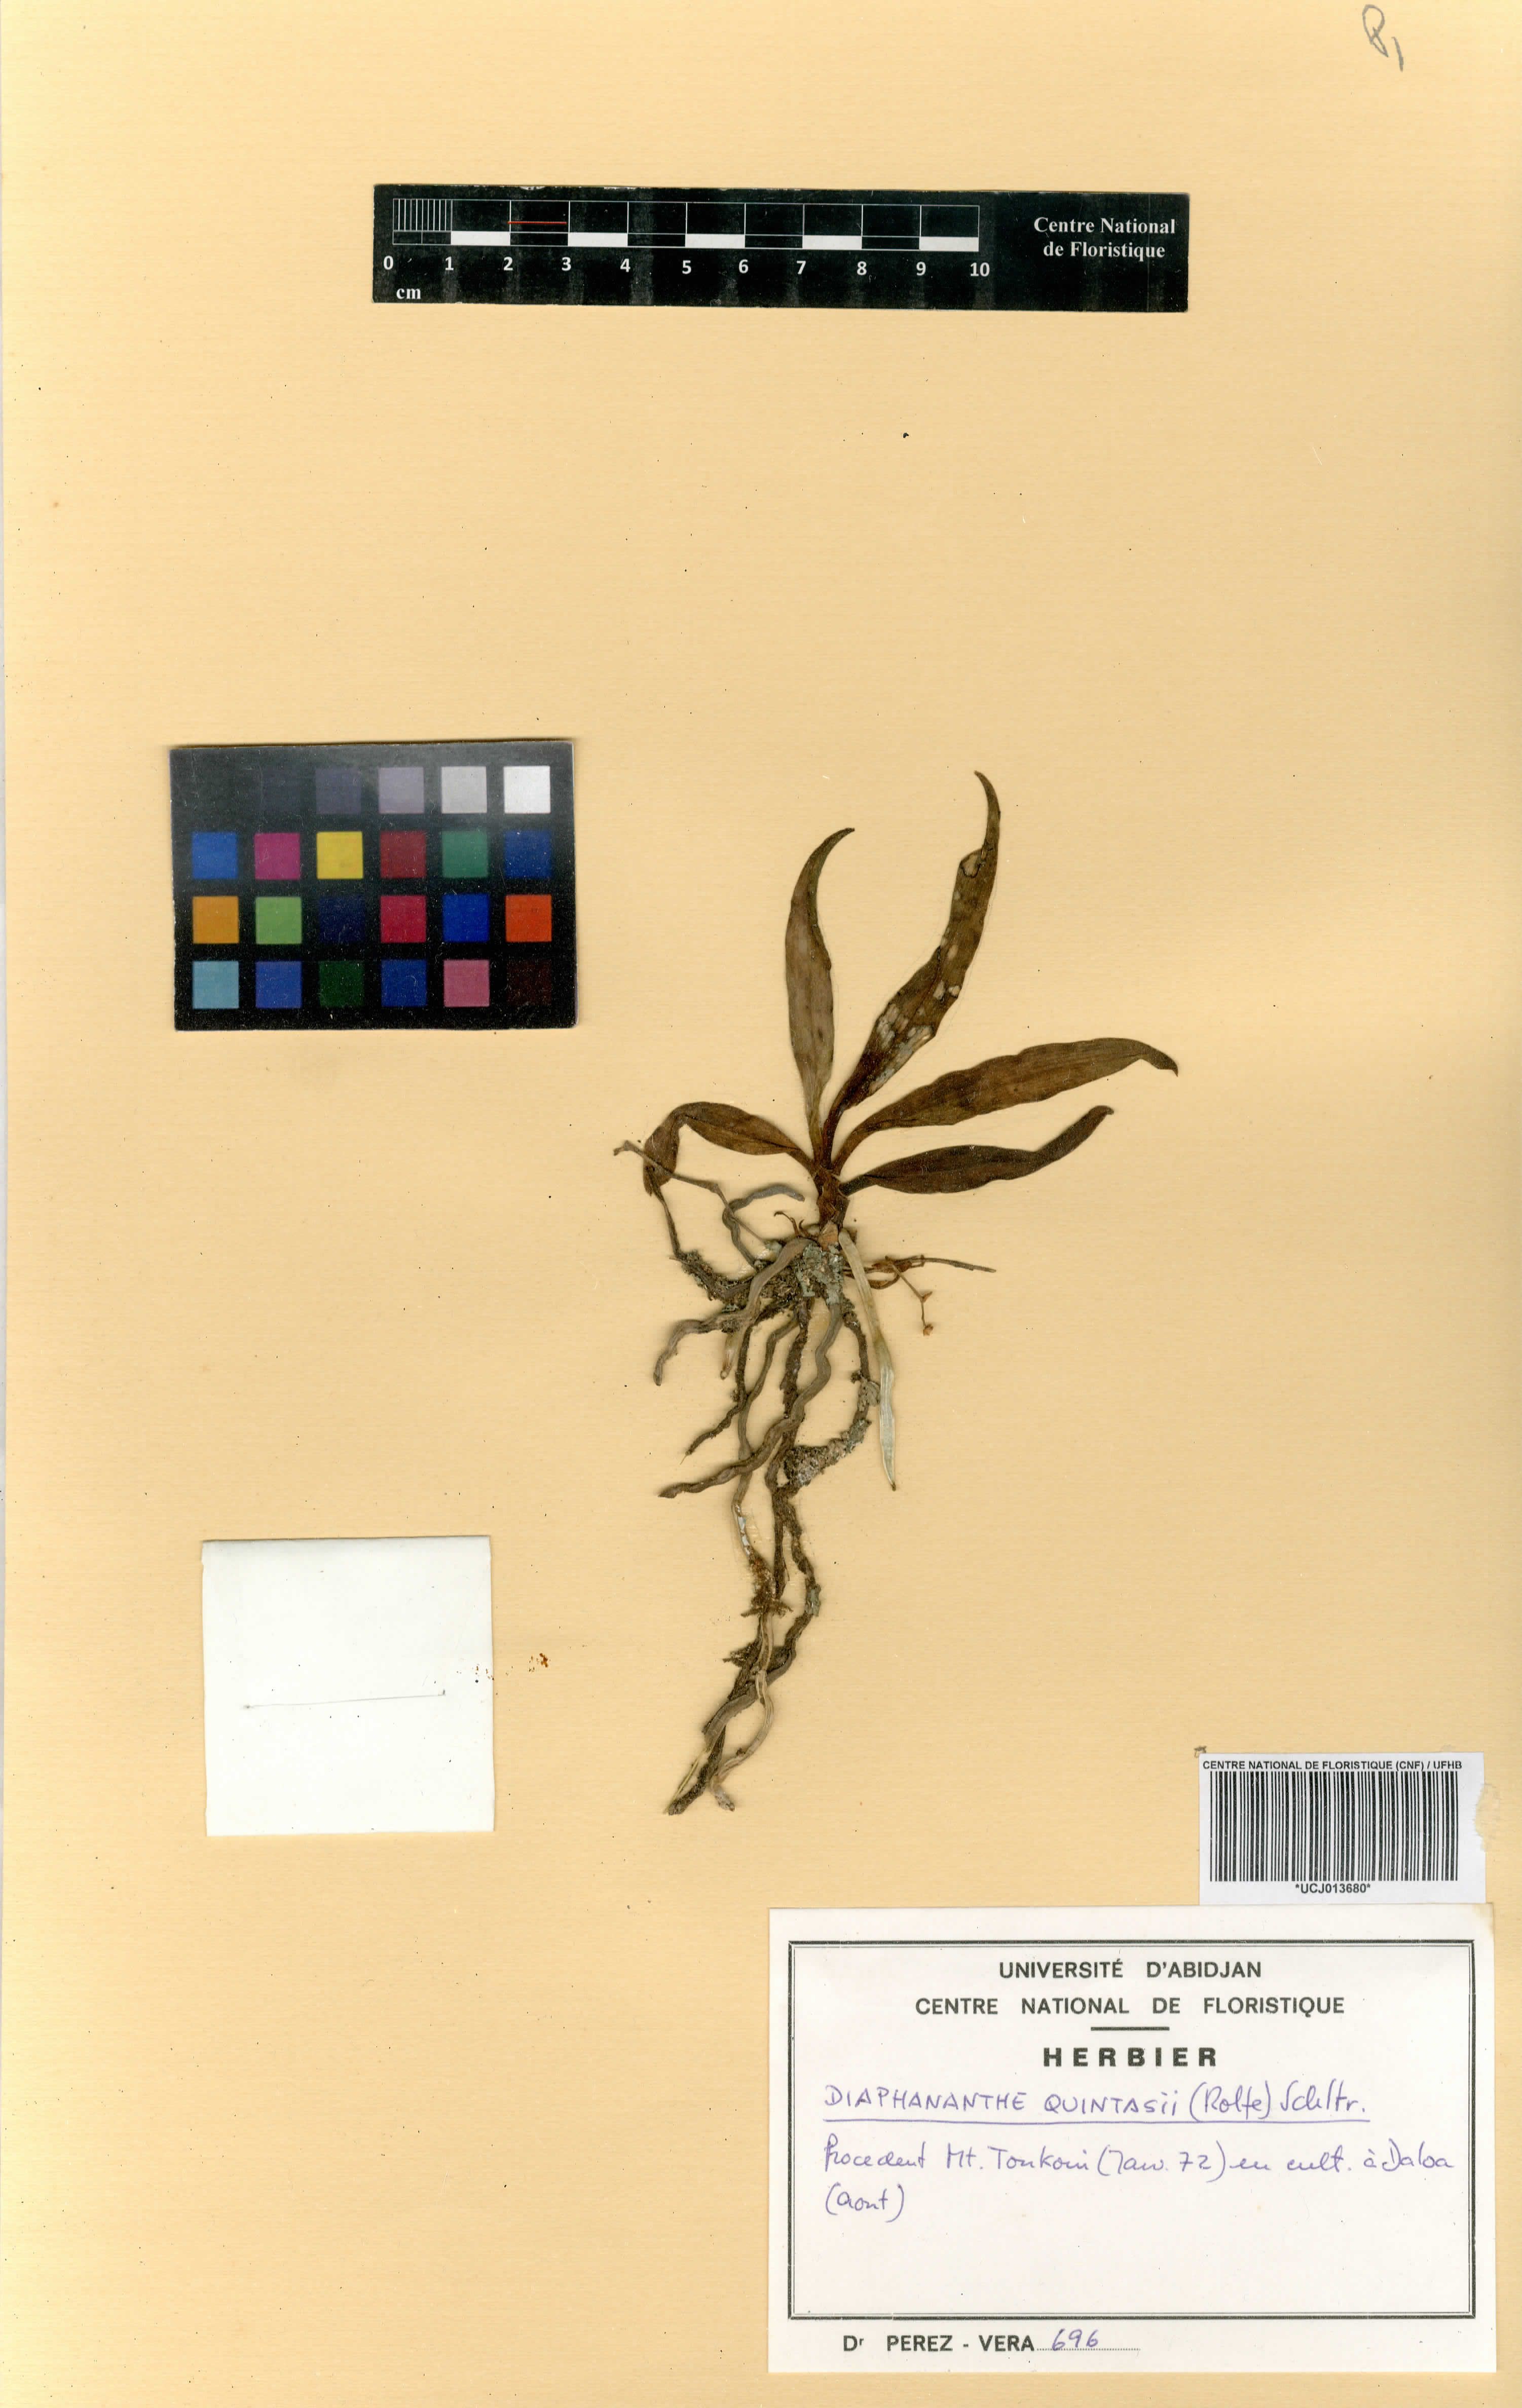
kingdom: Plantae
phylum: Tracheophyta
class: Liliopsida
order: Asparagales
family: Orchidaceae
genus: Kylicanthe
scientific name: Kylicanthe rohrii
